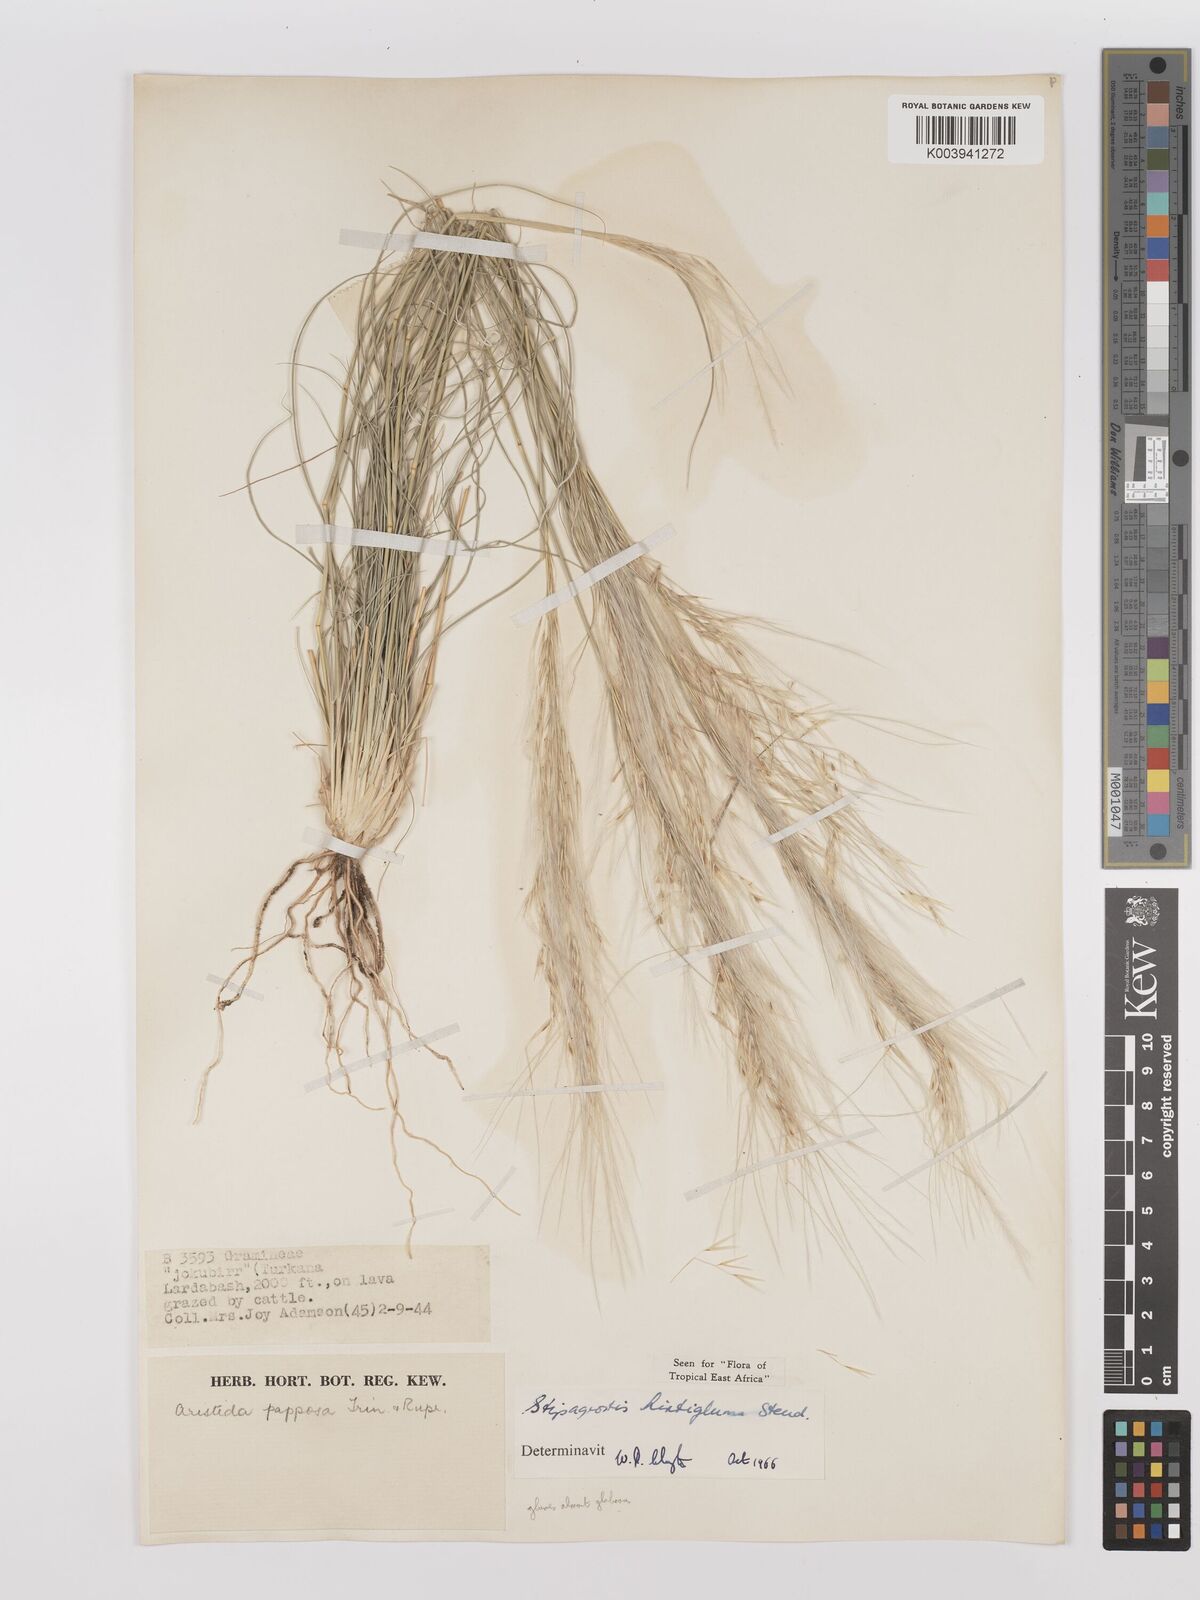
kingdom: Plantae
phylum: Tracheophyta
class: Liliopsida
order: Poales
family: Poaceae
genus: Stipagrostis
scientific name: Stipagrostis hirtigluma
